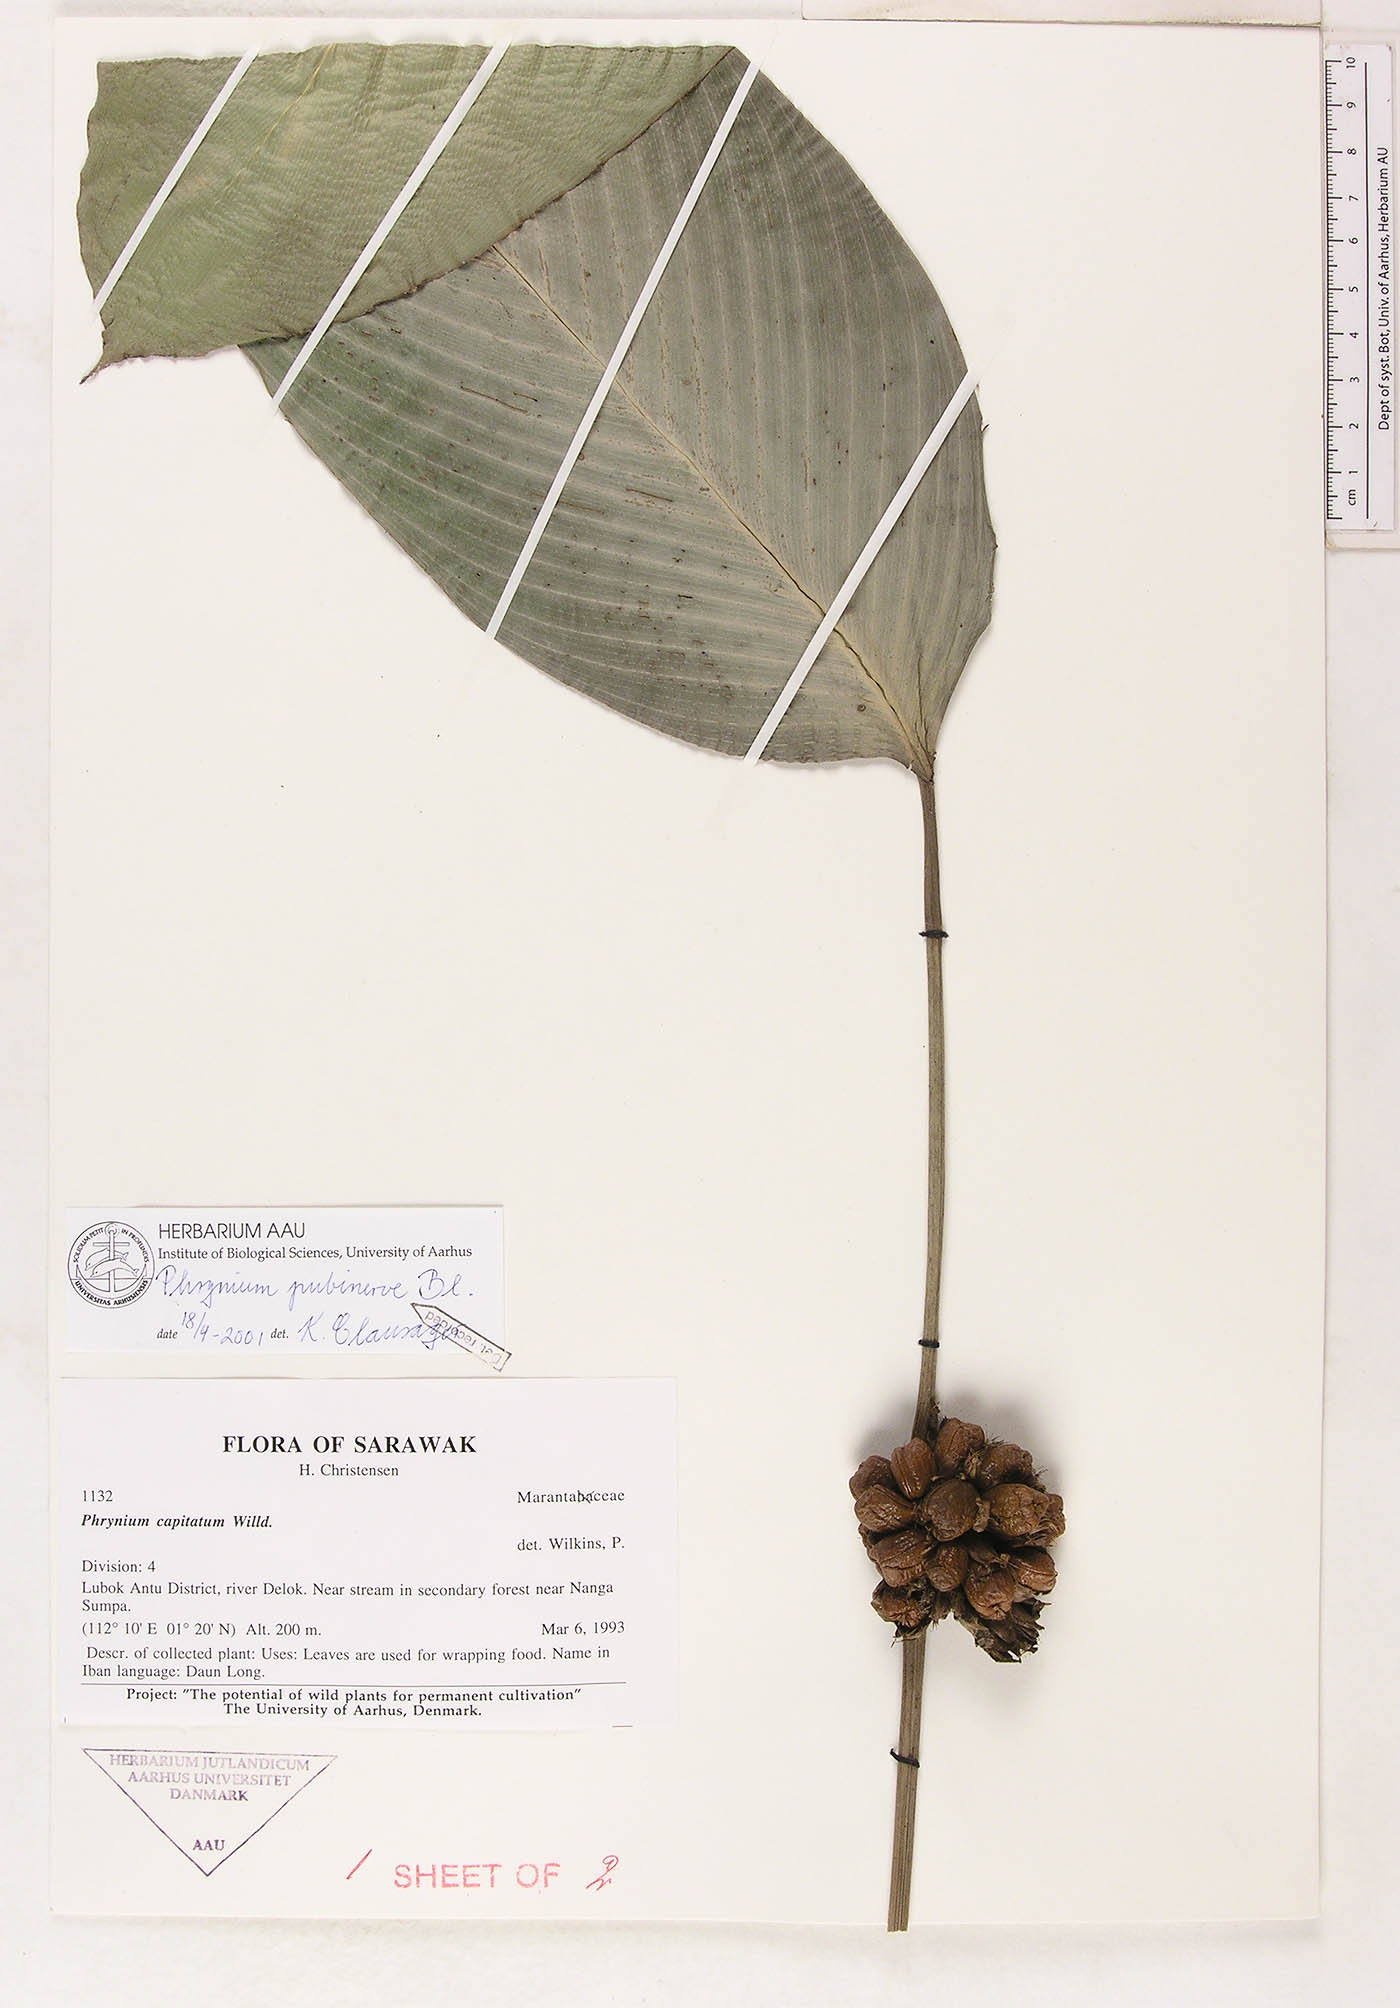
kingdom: Plantae
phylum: Tracheophyta
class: Liliopsida
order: Zingiberales
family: Marantaceae
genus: Phrynium
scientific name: Phrynium pubinerve
